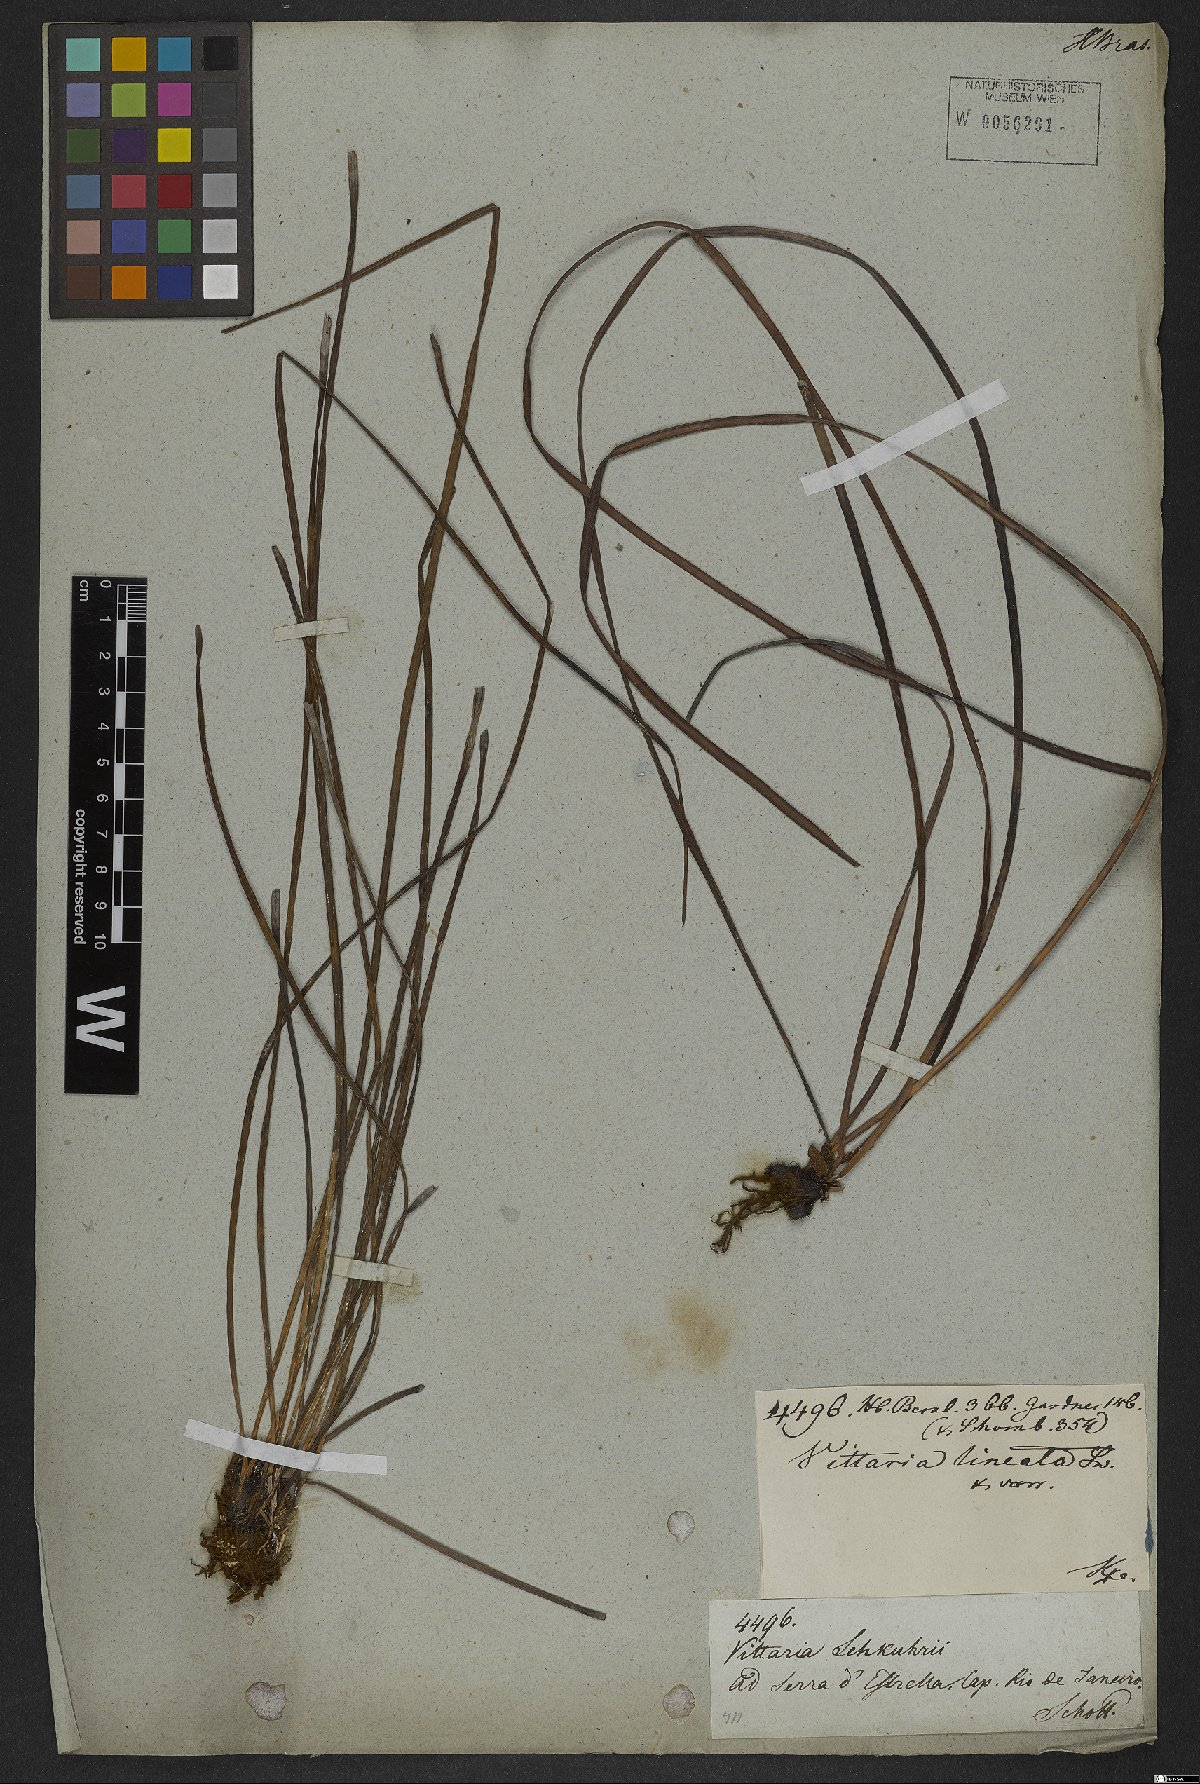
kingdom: Plantae
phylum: Tracheophyta
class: Polypodiopsida
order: Polypodiales
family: Pteridaceae
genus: Vittaria
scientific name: Vittaria lineata
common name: Shoestring fern
